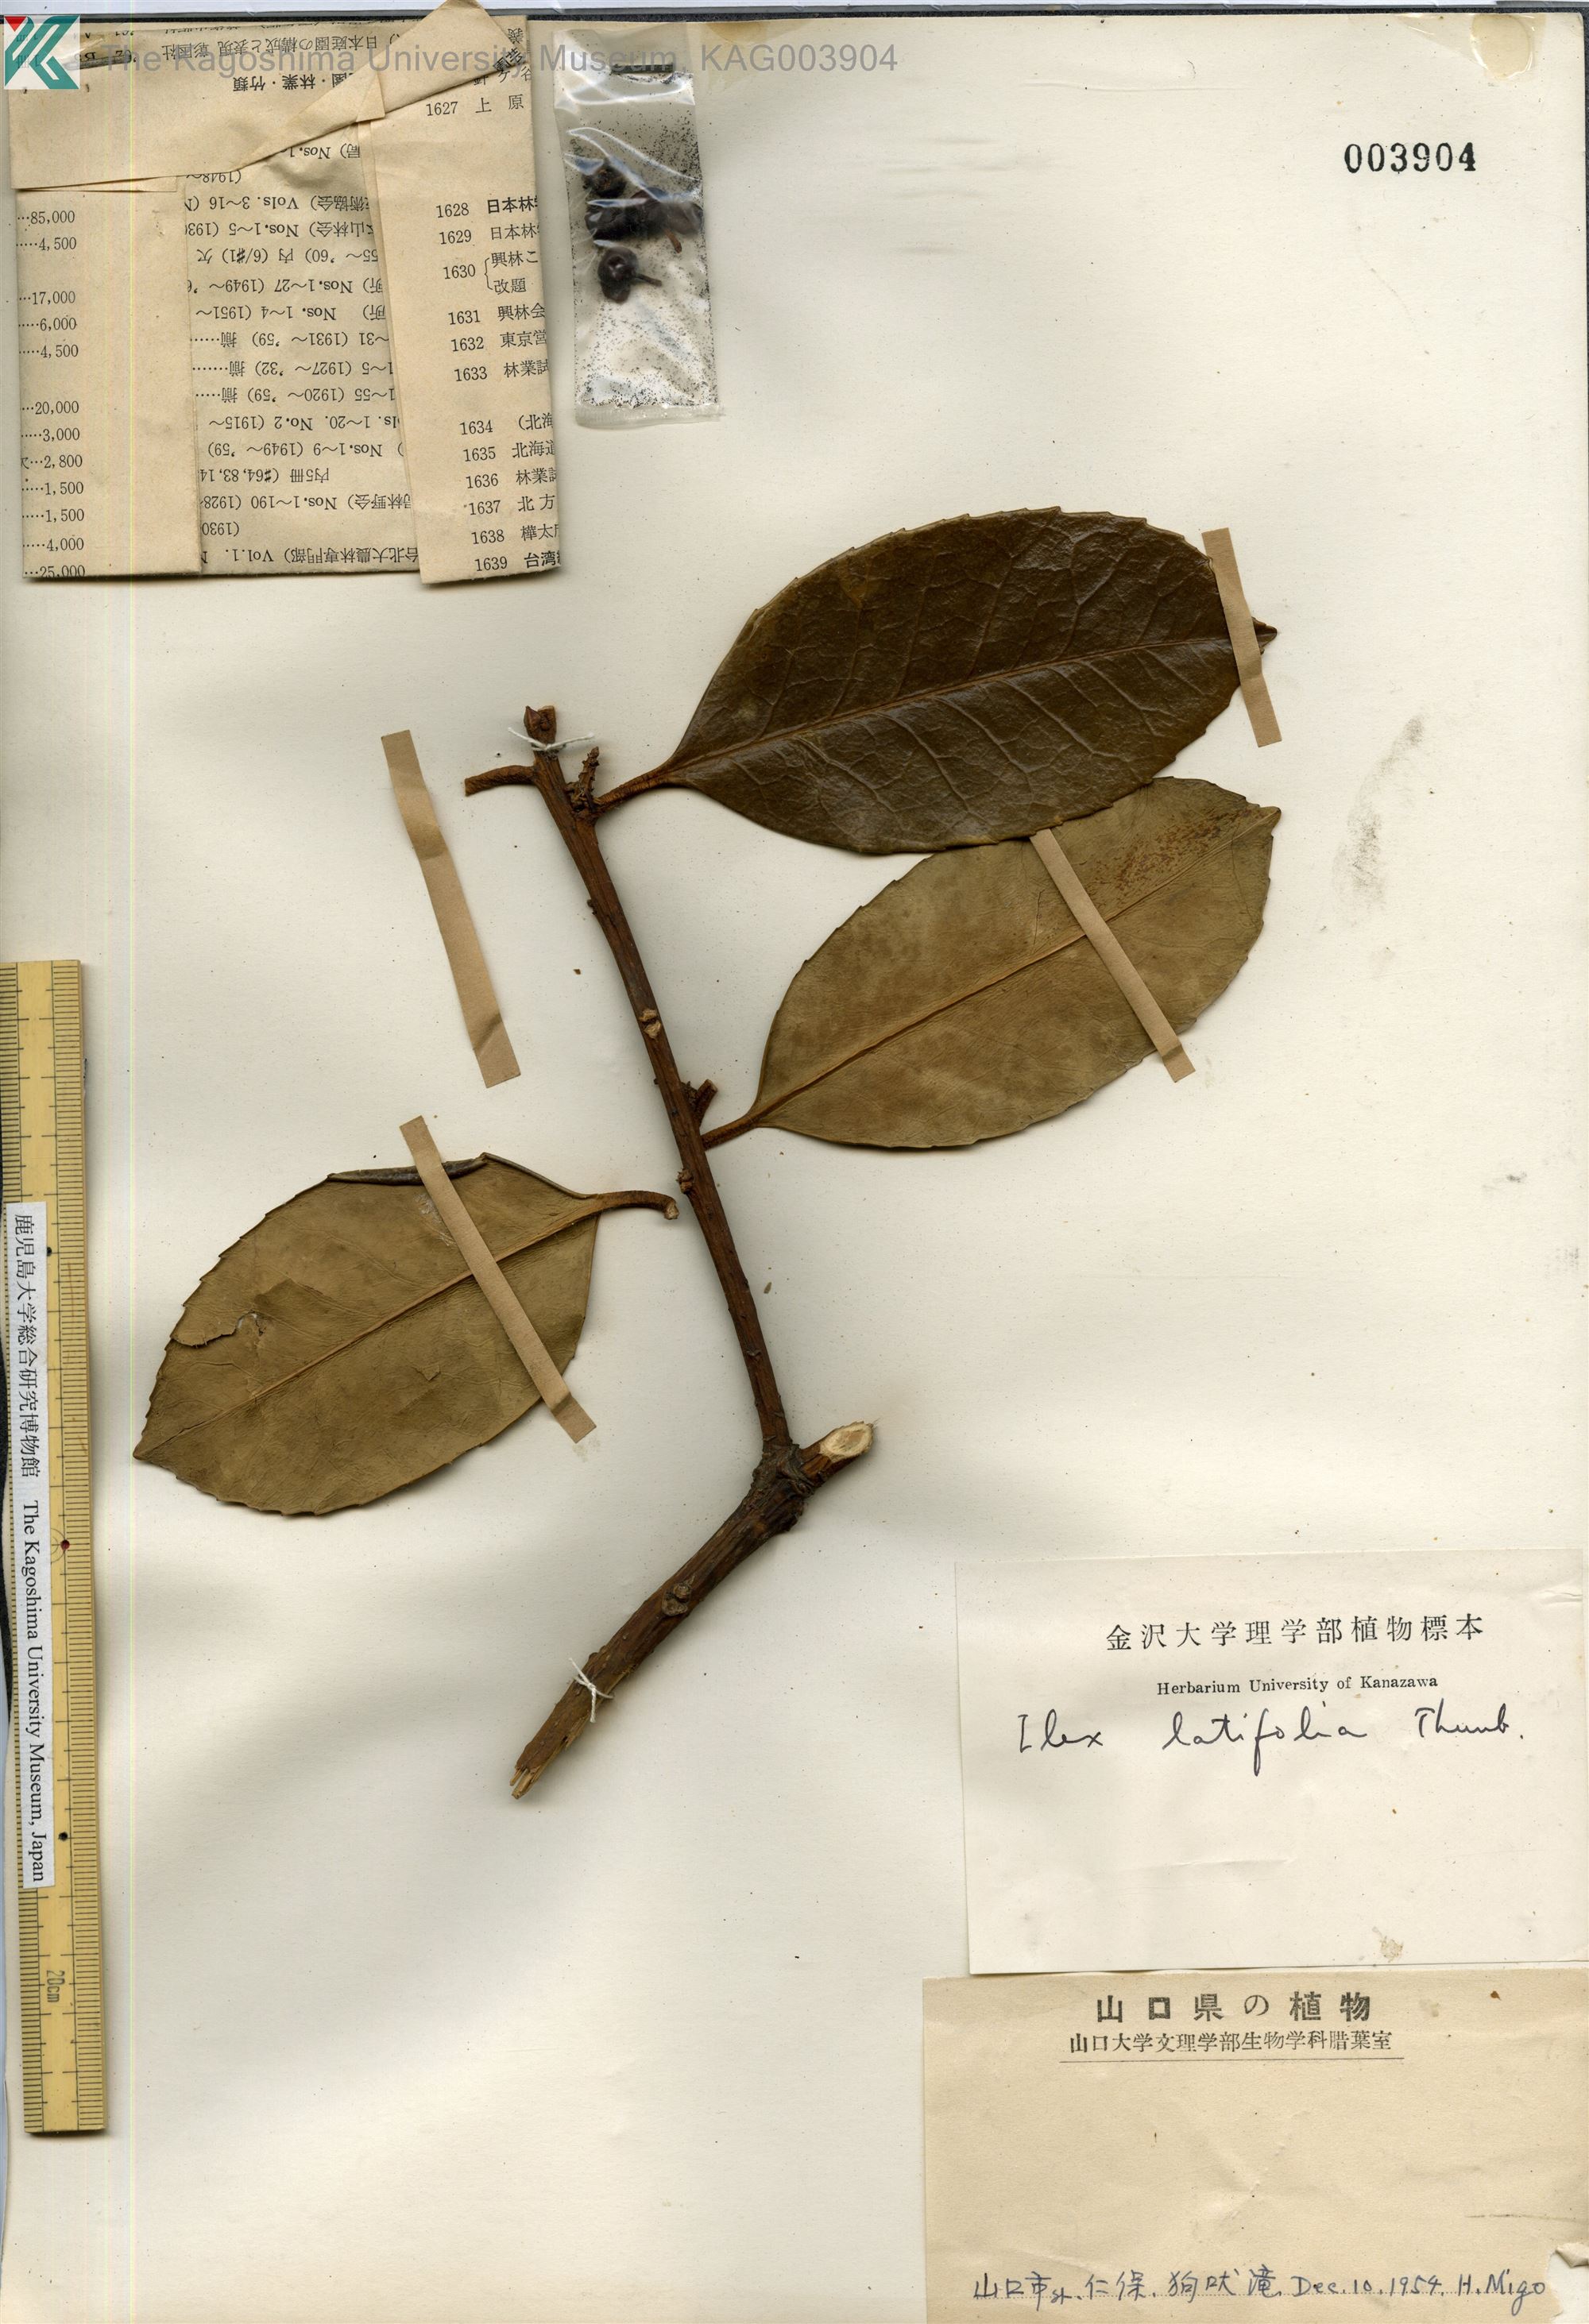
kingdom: Plantae
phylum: Tracheophyta
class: Magnoliopsida
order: Aquifoliales
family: Aquifoliaceae
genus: Ilex
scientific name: Ilex latifolia
